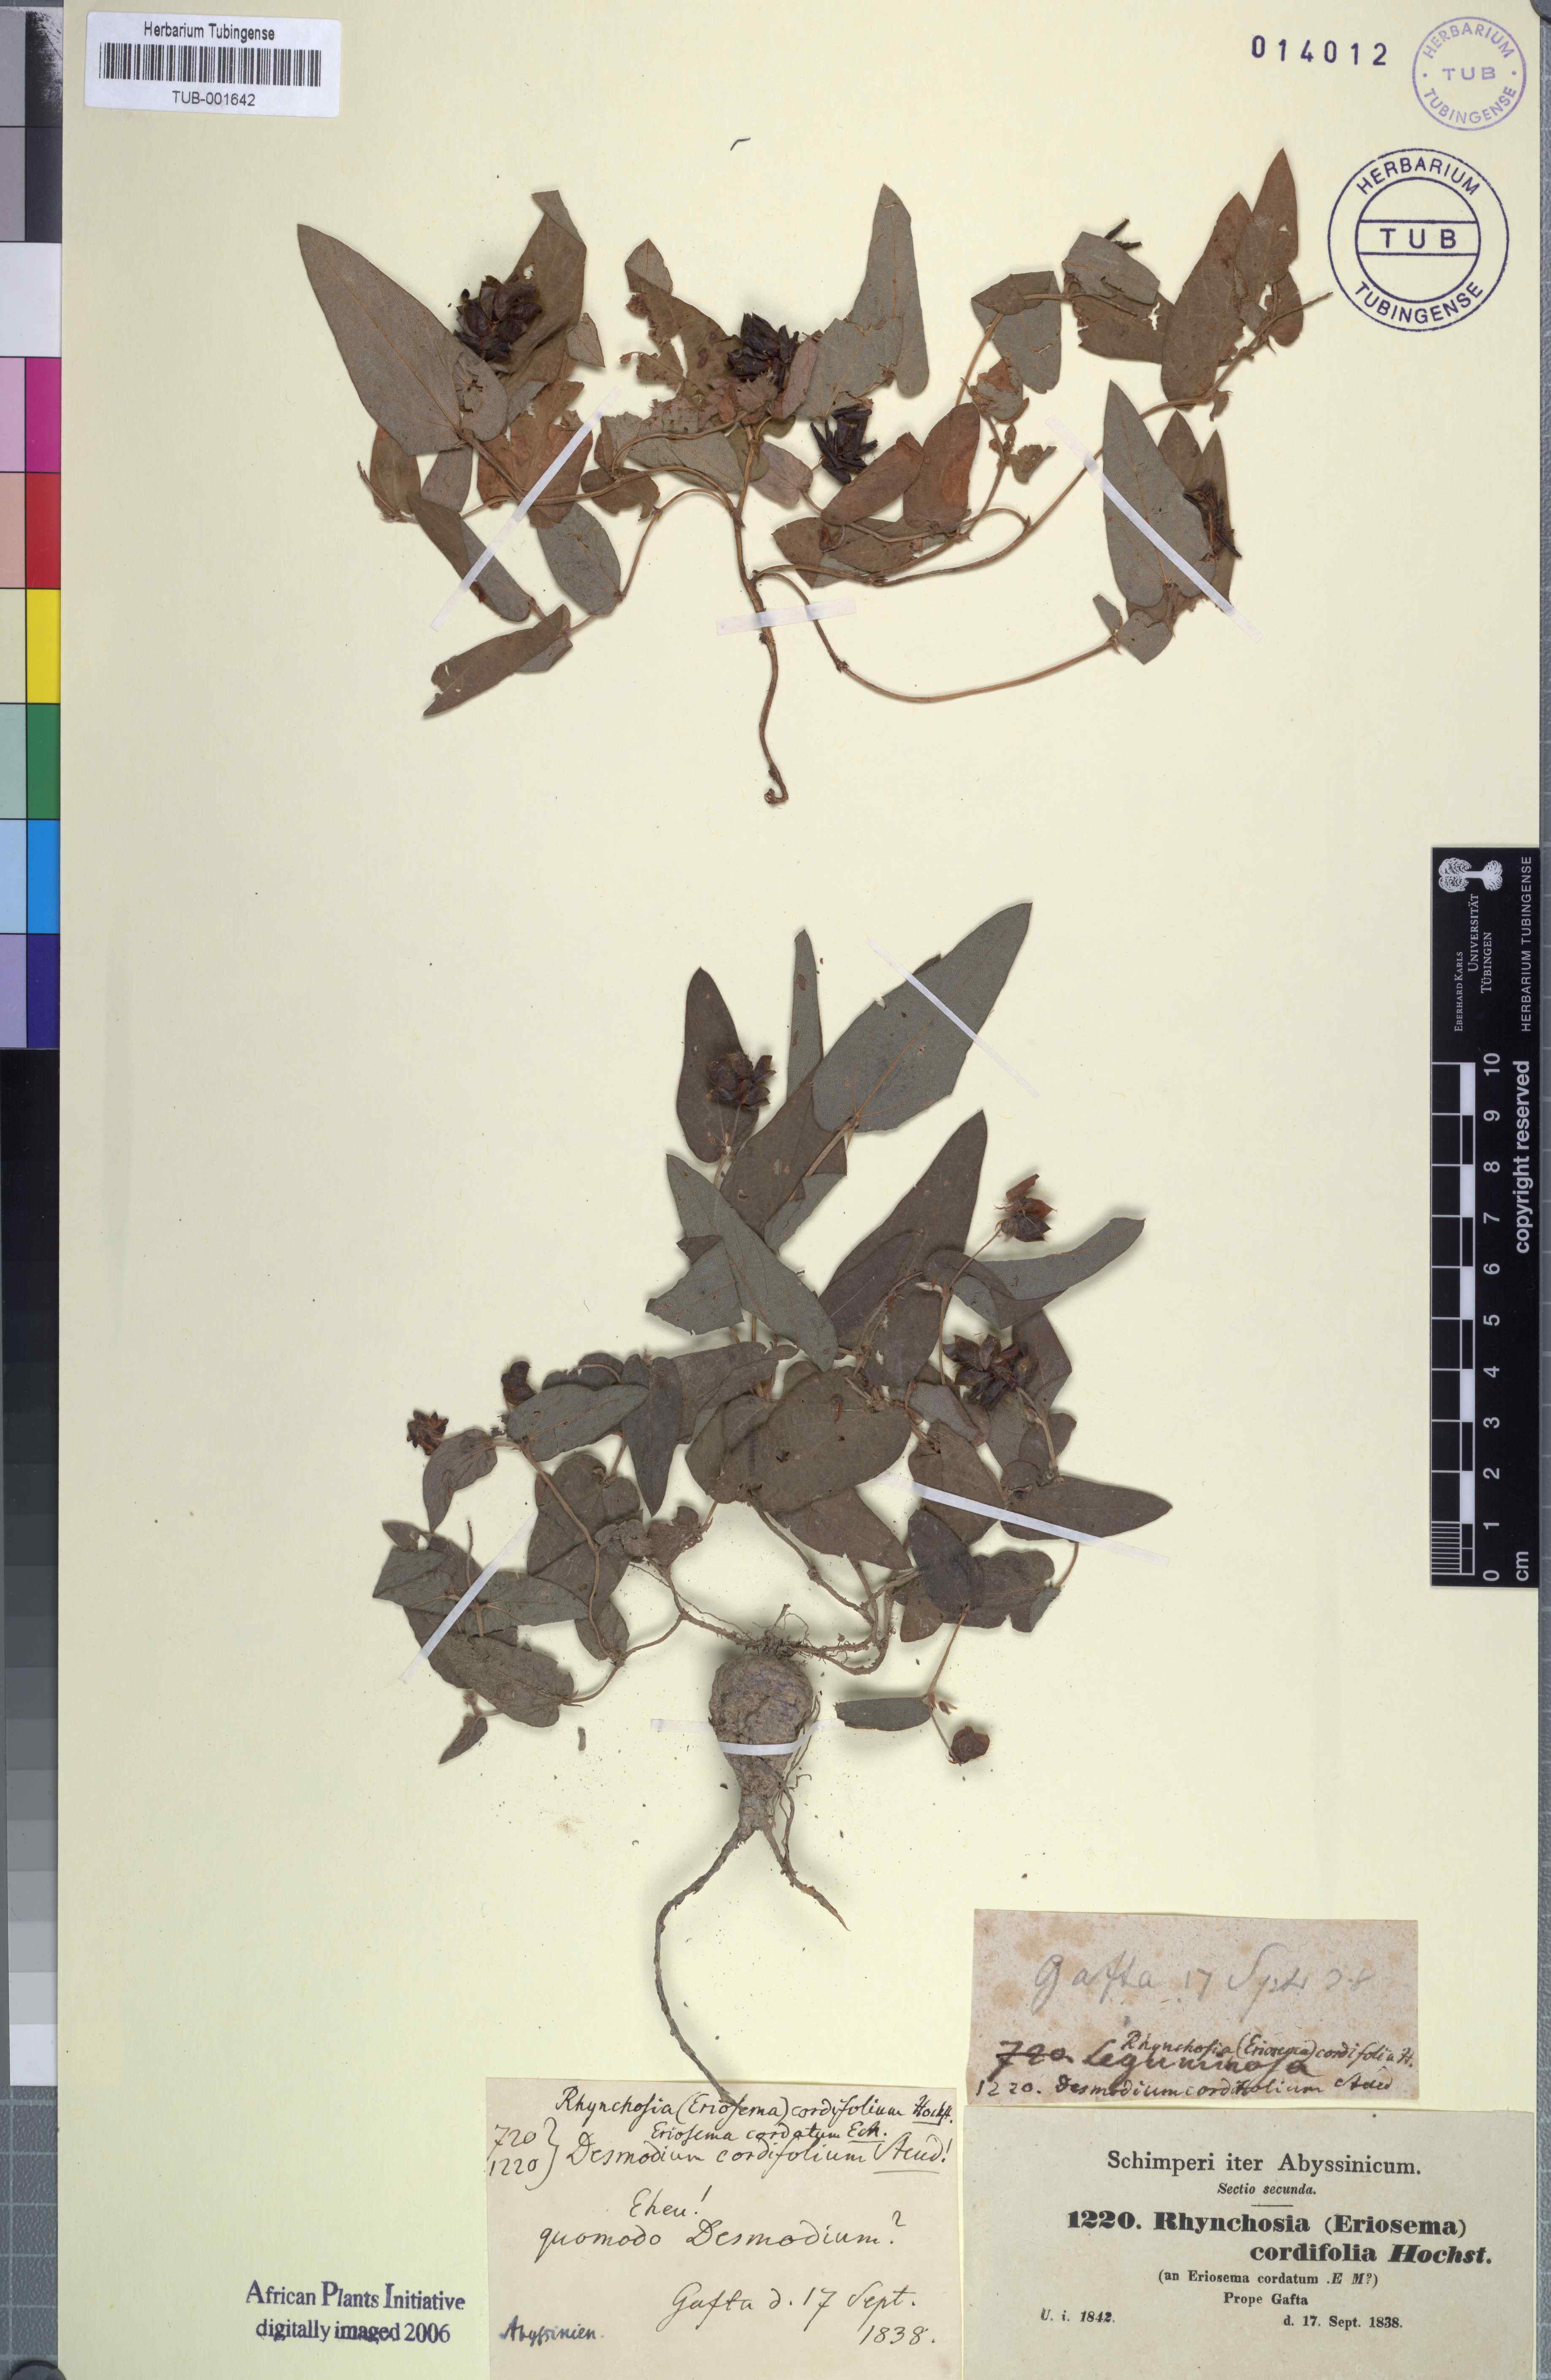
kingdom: Plantae
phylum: Tracheophyta
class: Magnoliopsida
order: Fabales
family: Fabaceae
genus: Eriosema
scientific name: Eriosema cordifolium
